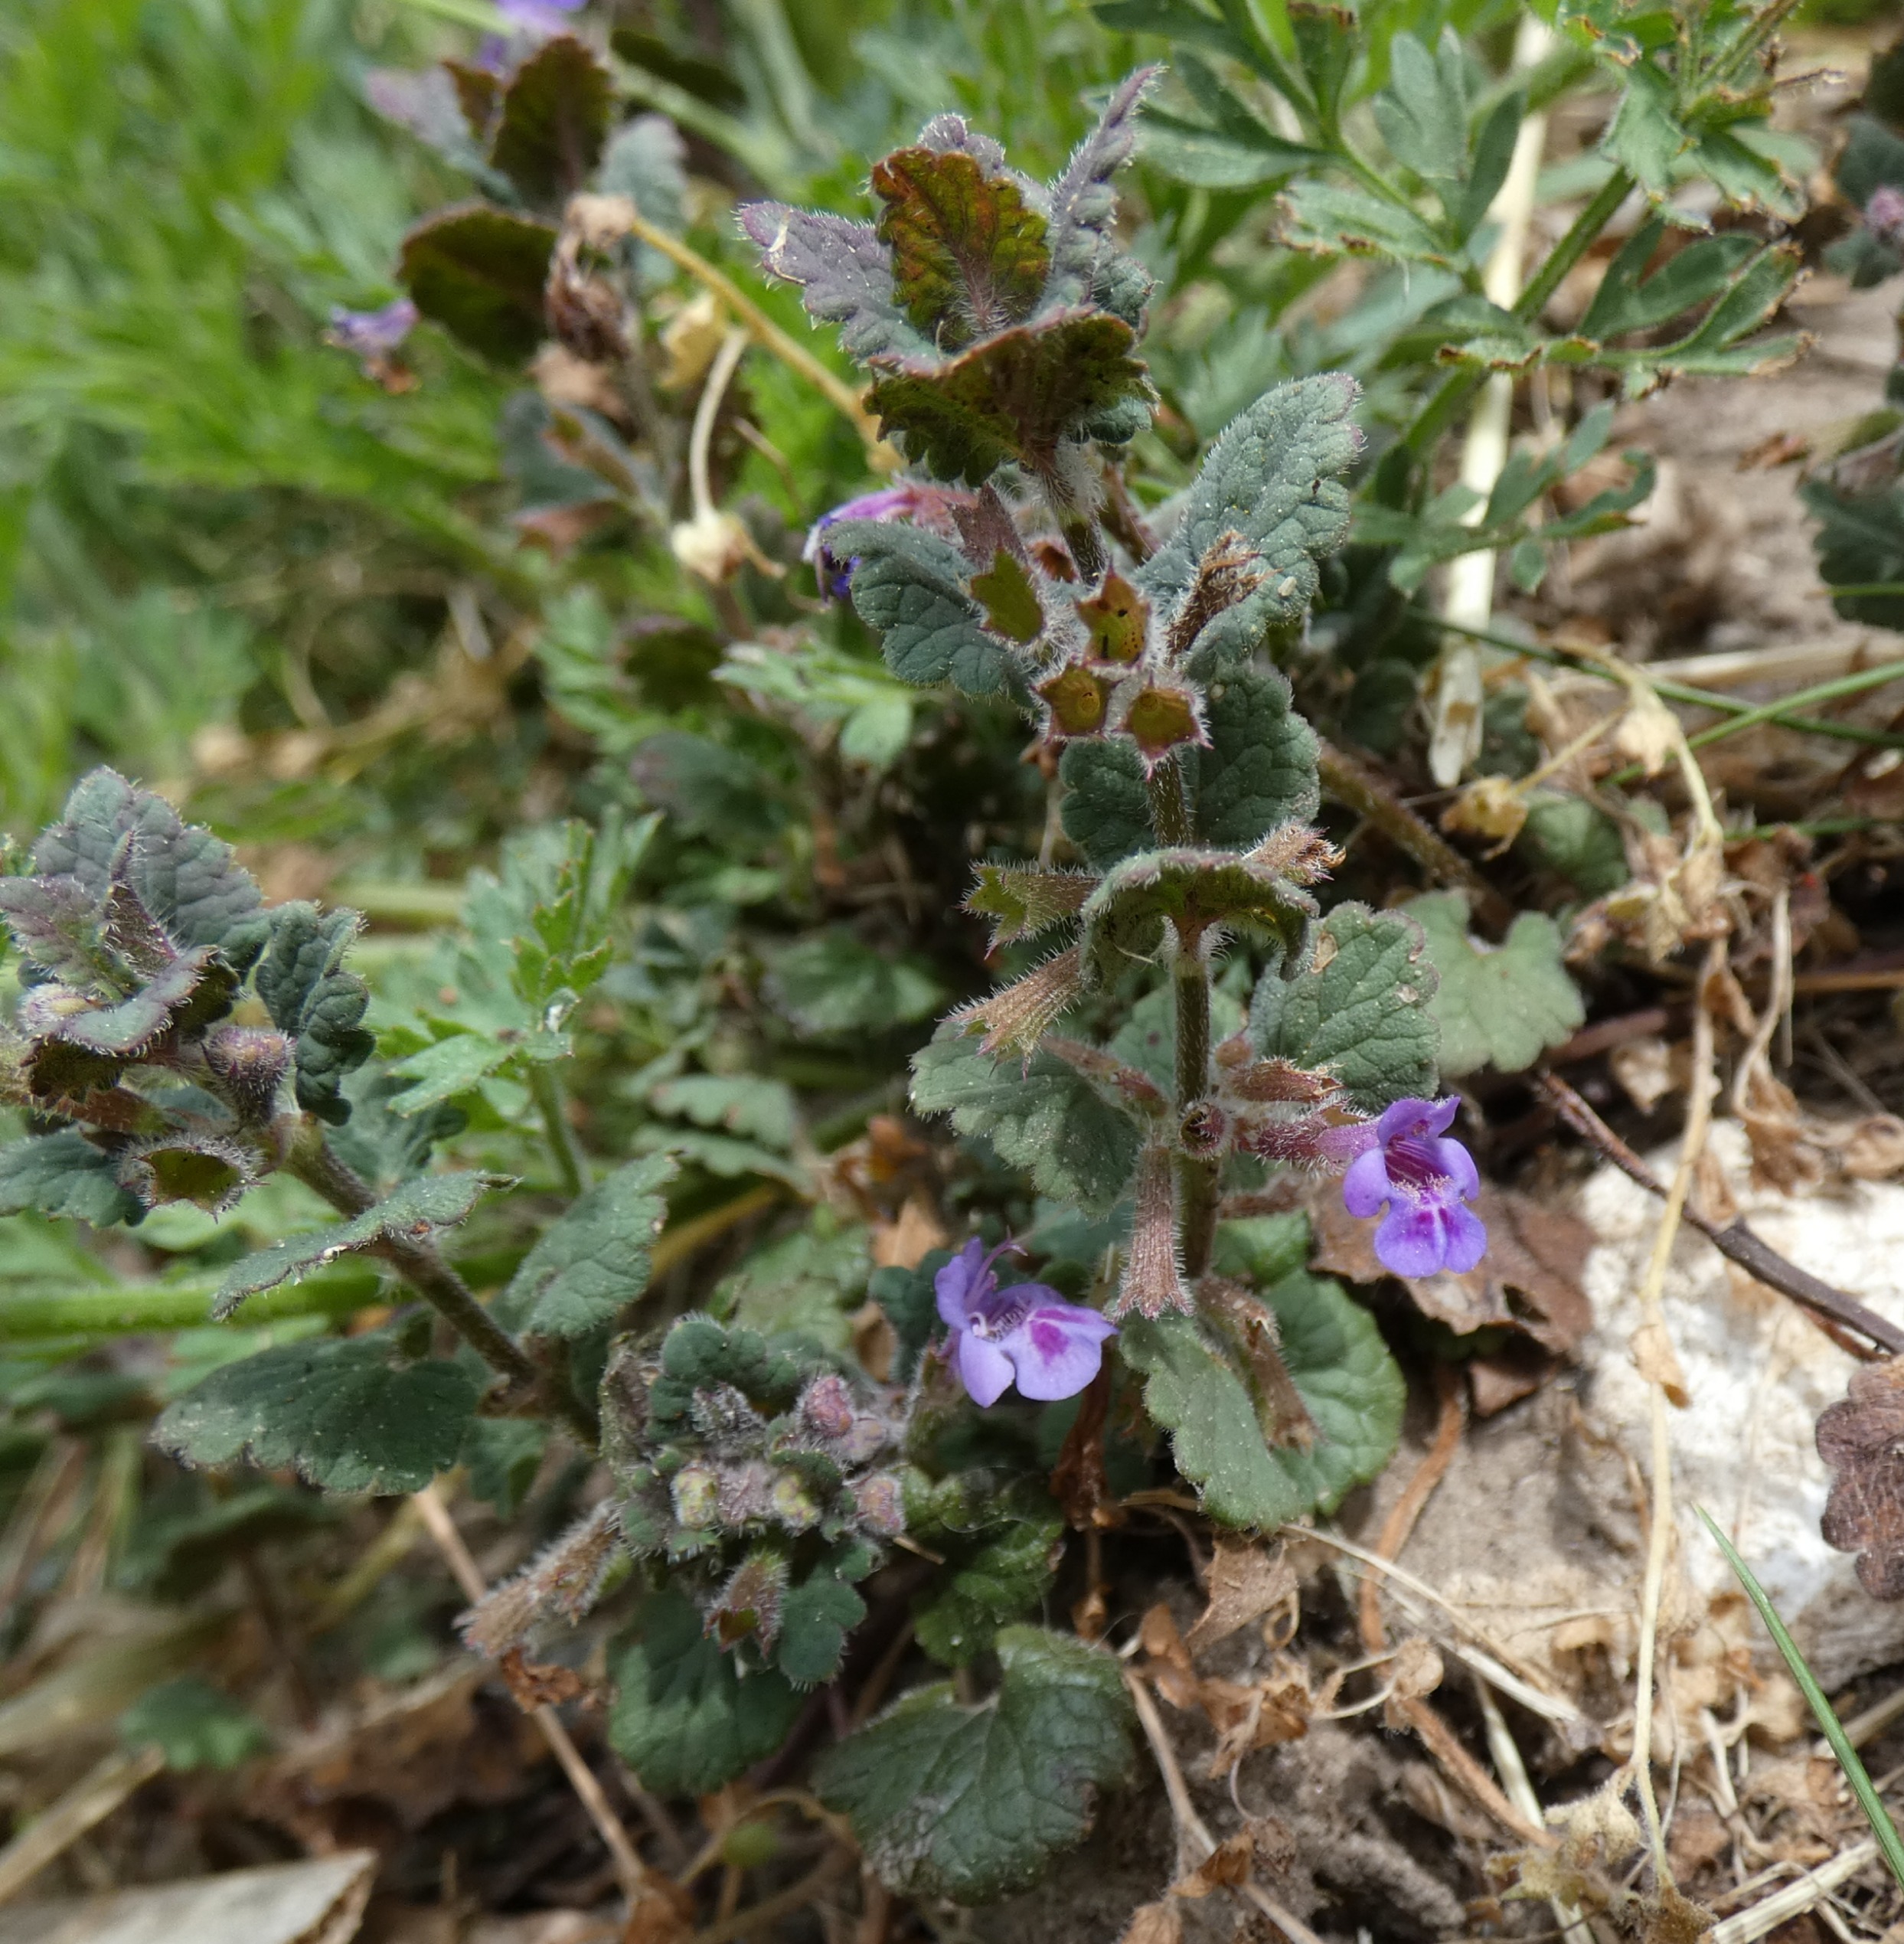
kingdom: Plantae
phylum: Tracheophyta
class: Magnoliopsida
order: Lamiales
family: Lamiaceae
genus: Glechoma
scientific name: Glechoma hederacea
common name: Korsknap
